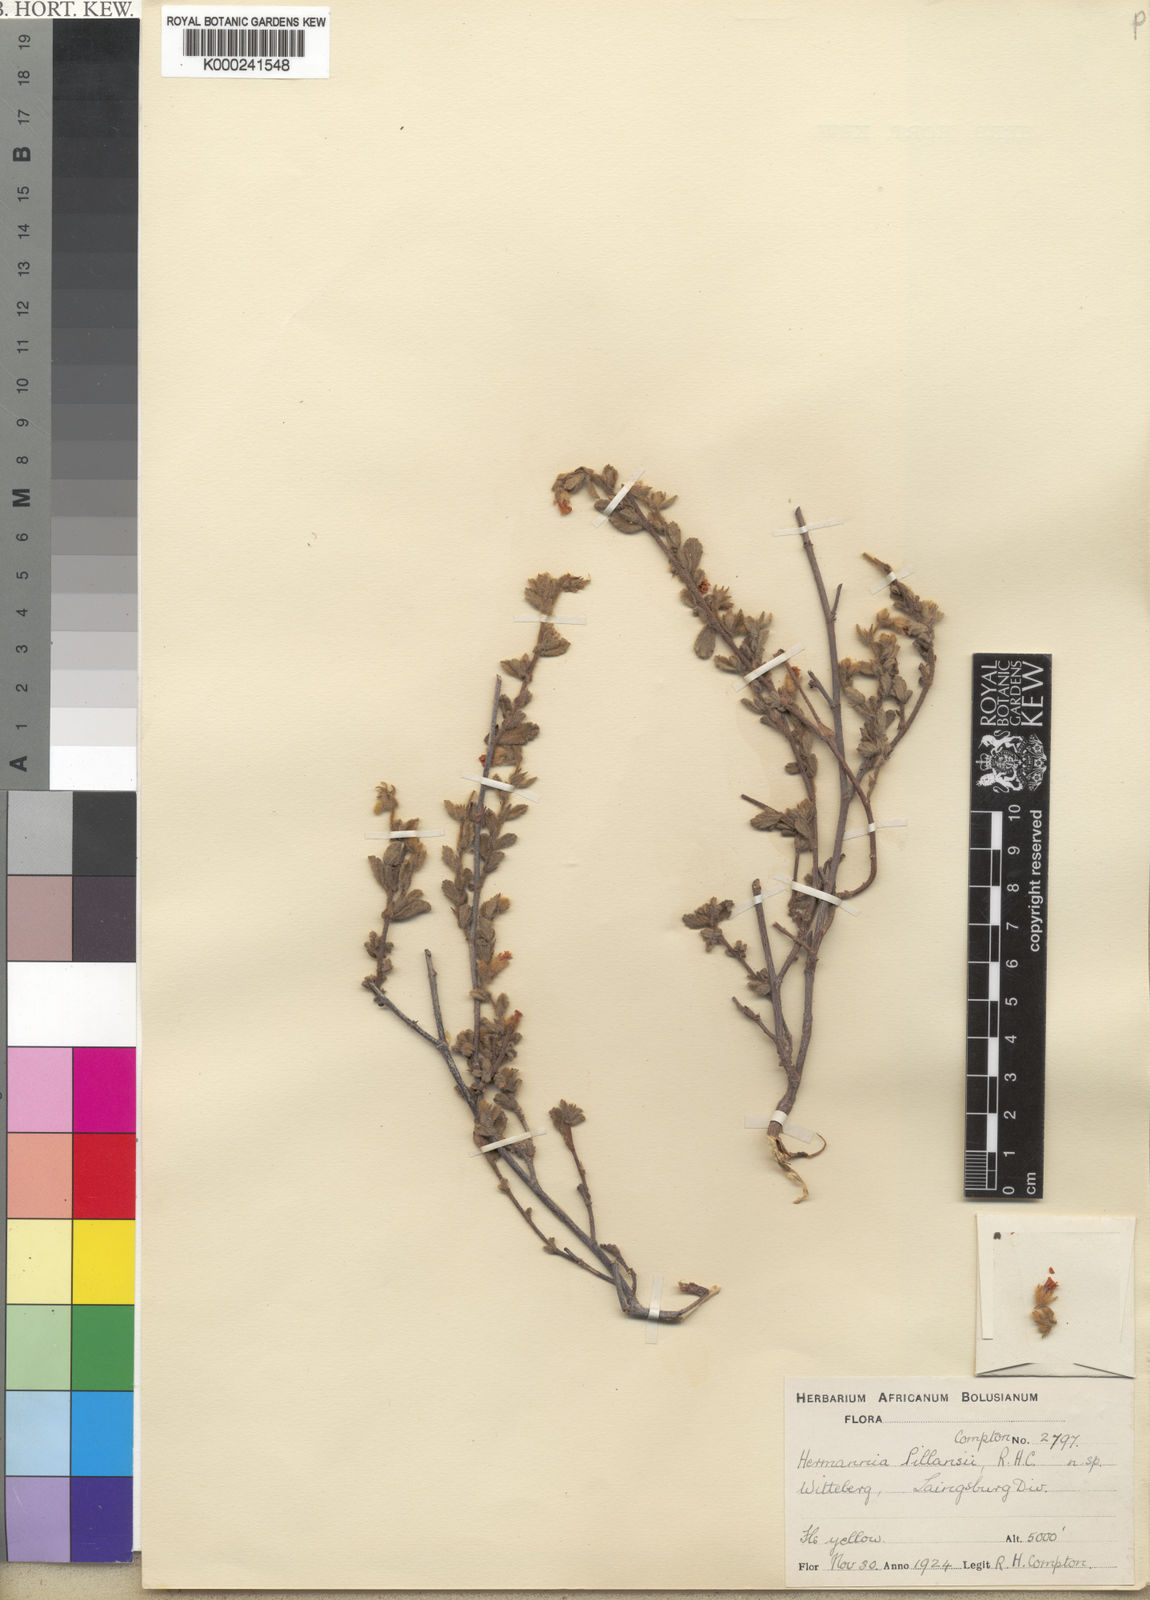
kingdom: Plantae
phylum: Tracheophyta
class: Magnoliopsida
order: Malvales
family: Malvaceae
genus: Hermannia
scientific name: Hermannia pillansii
